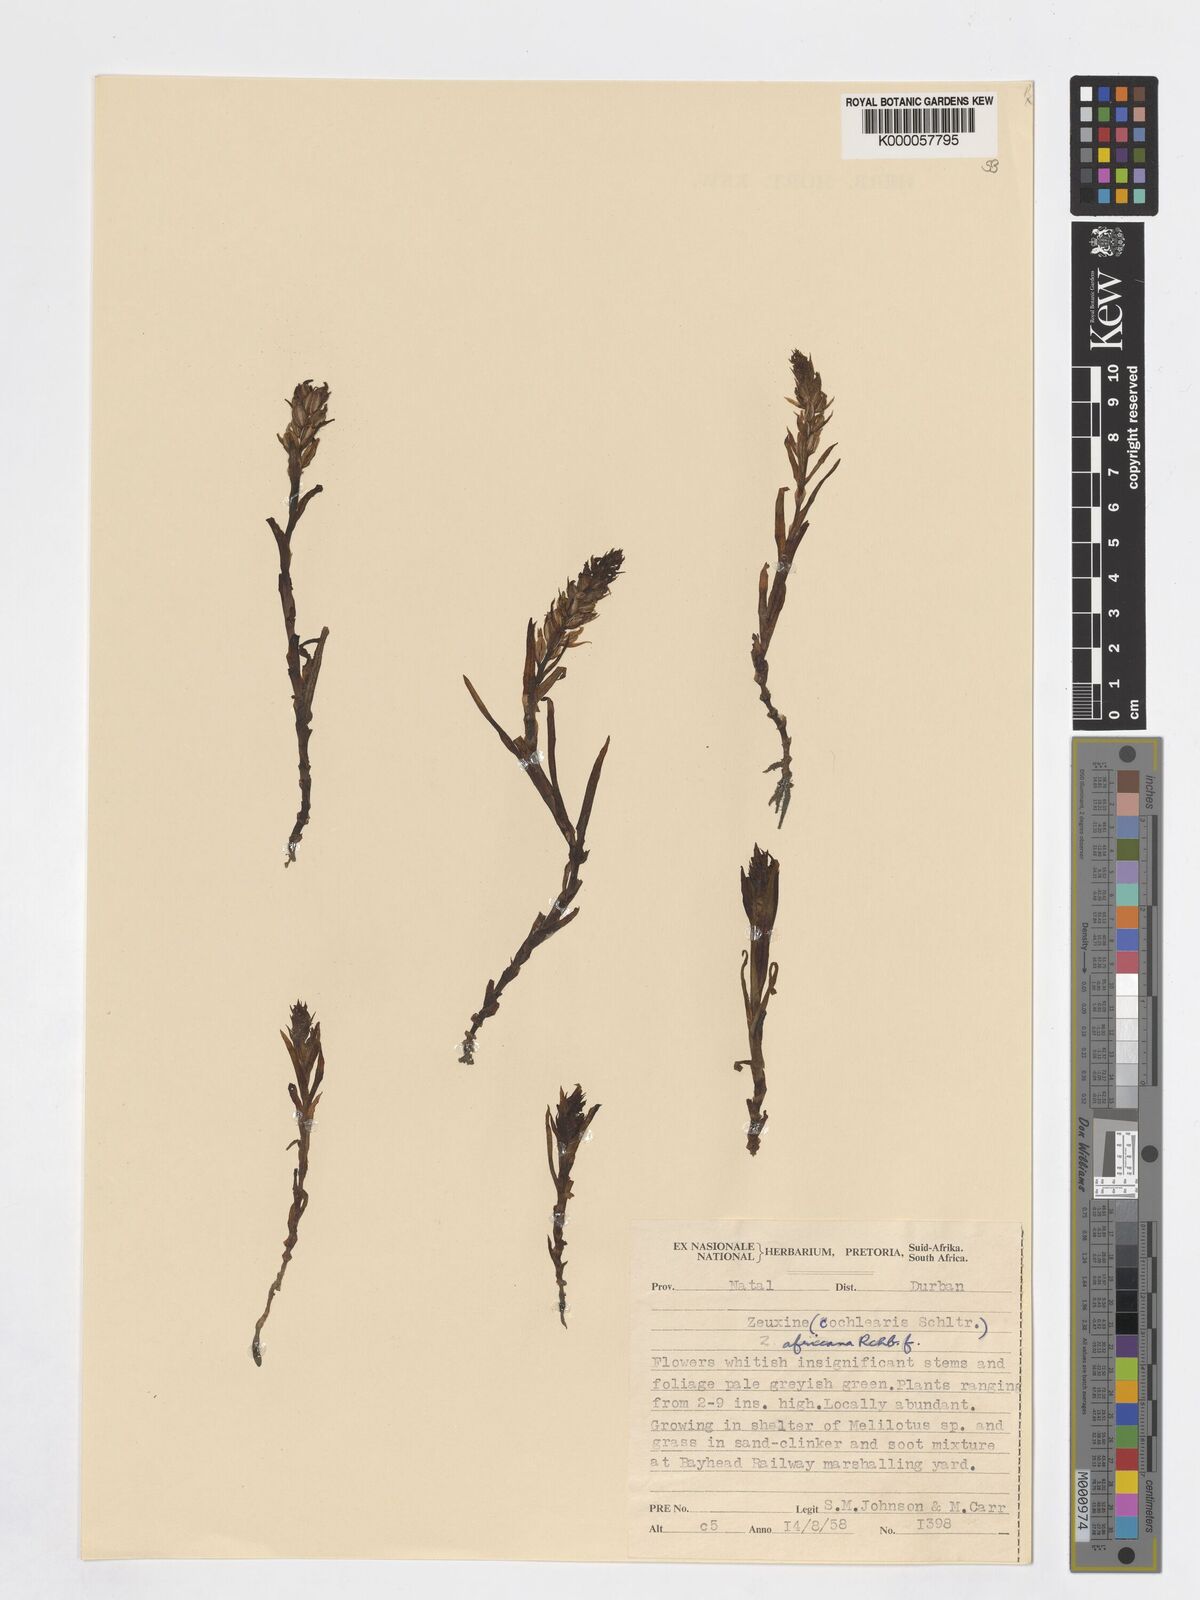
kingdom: Plantae
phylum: Tracheophyta
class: Liliopsida
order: Asparagales
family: Orchidaceae
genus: Zeuxine
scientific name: Zeuxine africana
